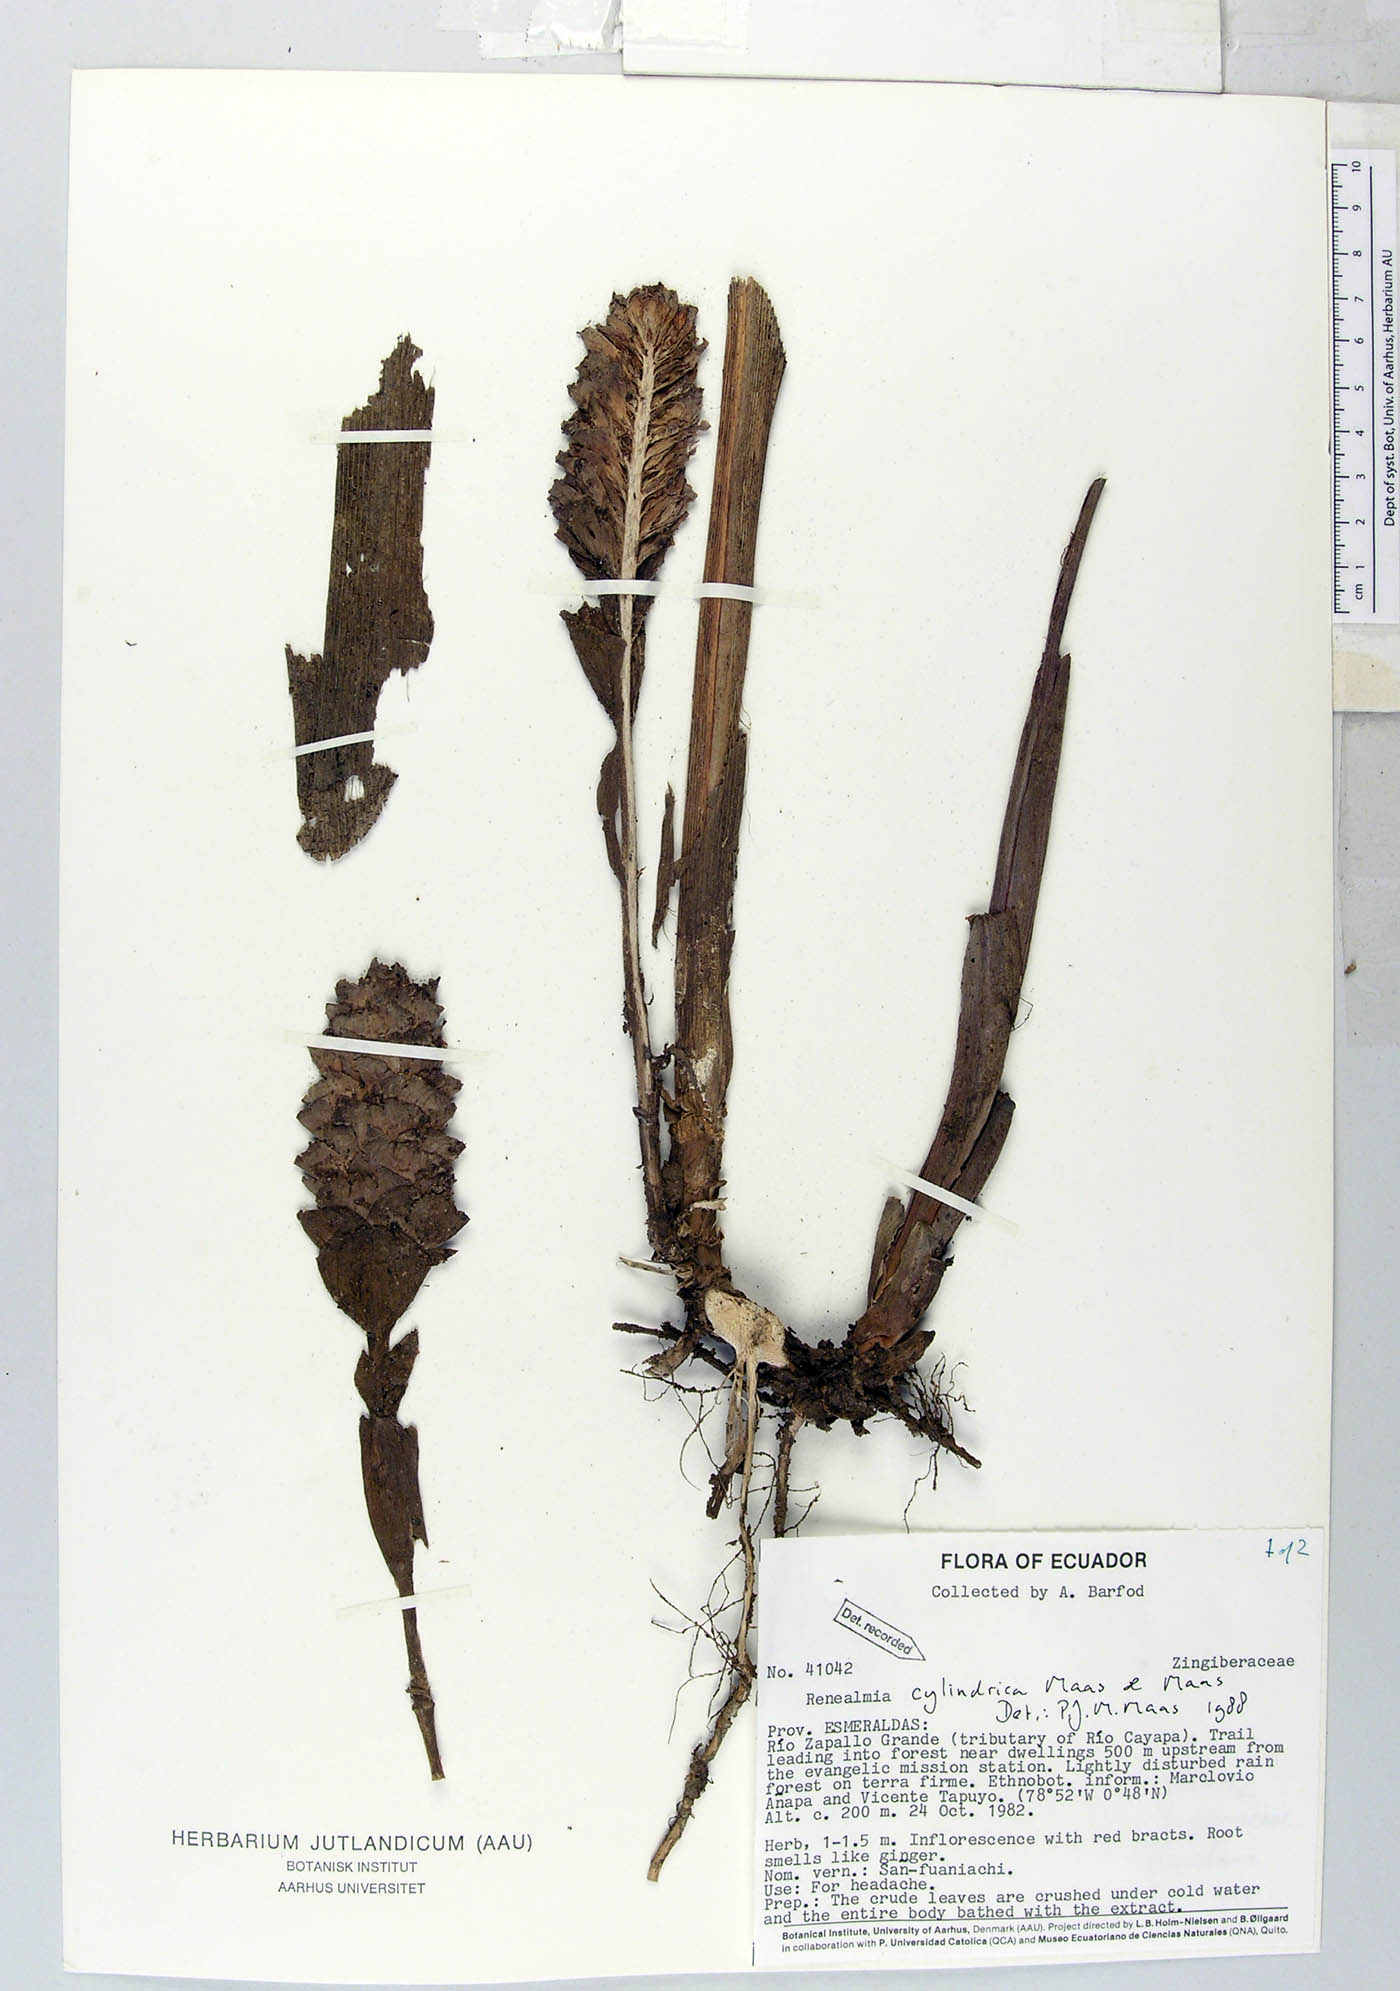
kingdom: Plantae
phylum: Tracheophyta
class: Liliopsida
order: Zingiberales
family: Zingiberaceae
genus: Renealmia
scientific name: Renealmia cylindrica
